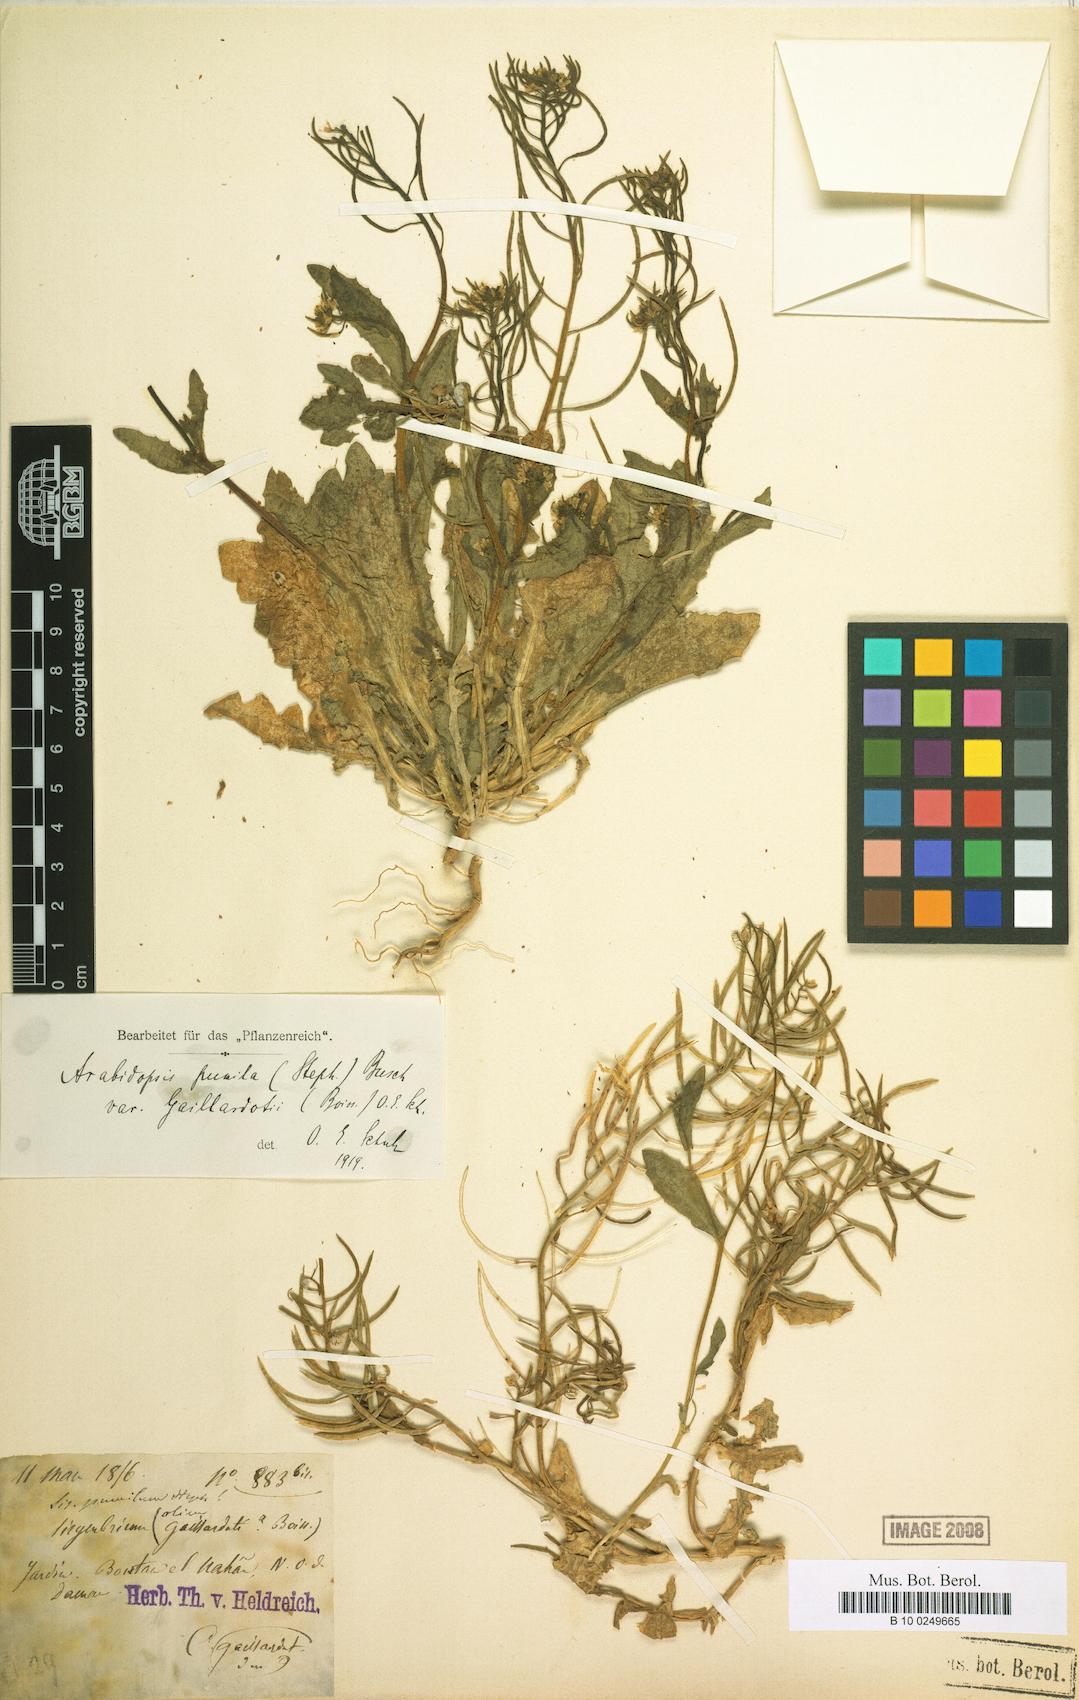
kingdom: Plantae
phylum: Tracheophyta
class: Magnoliopsida
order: Brassicales
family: Brassicaceae
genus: Sisymbrium
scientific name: Sisymbrium pumilum
